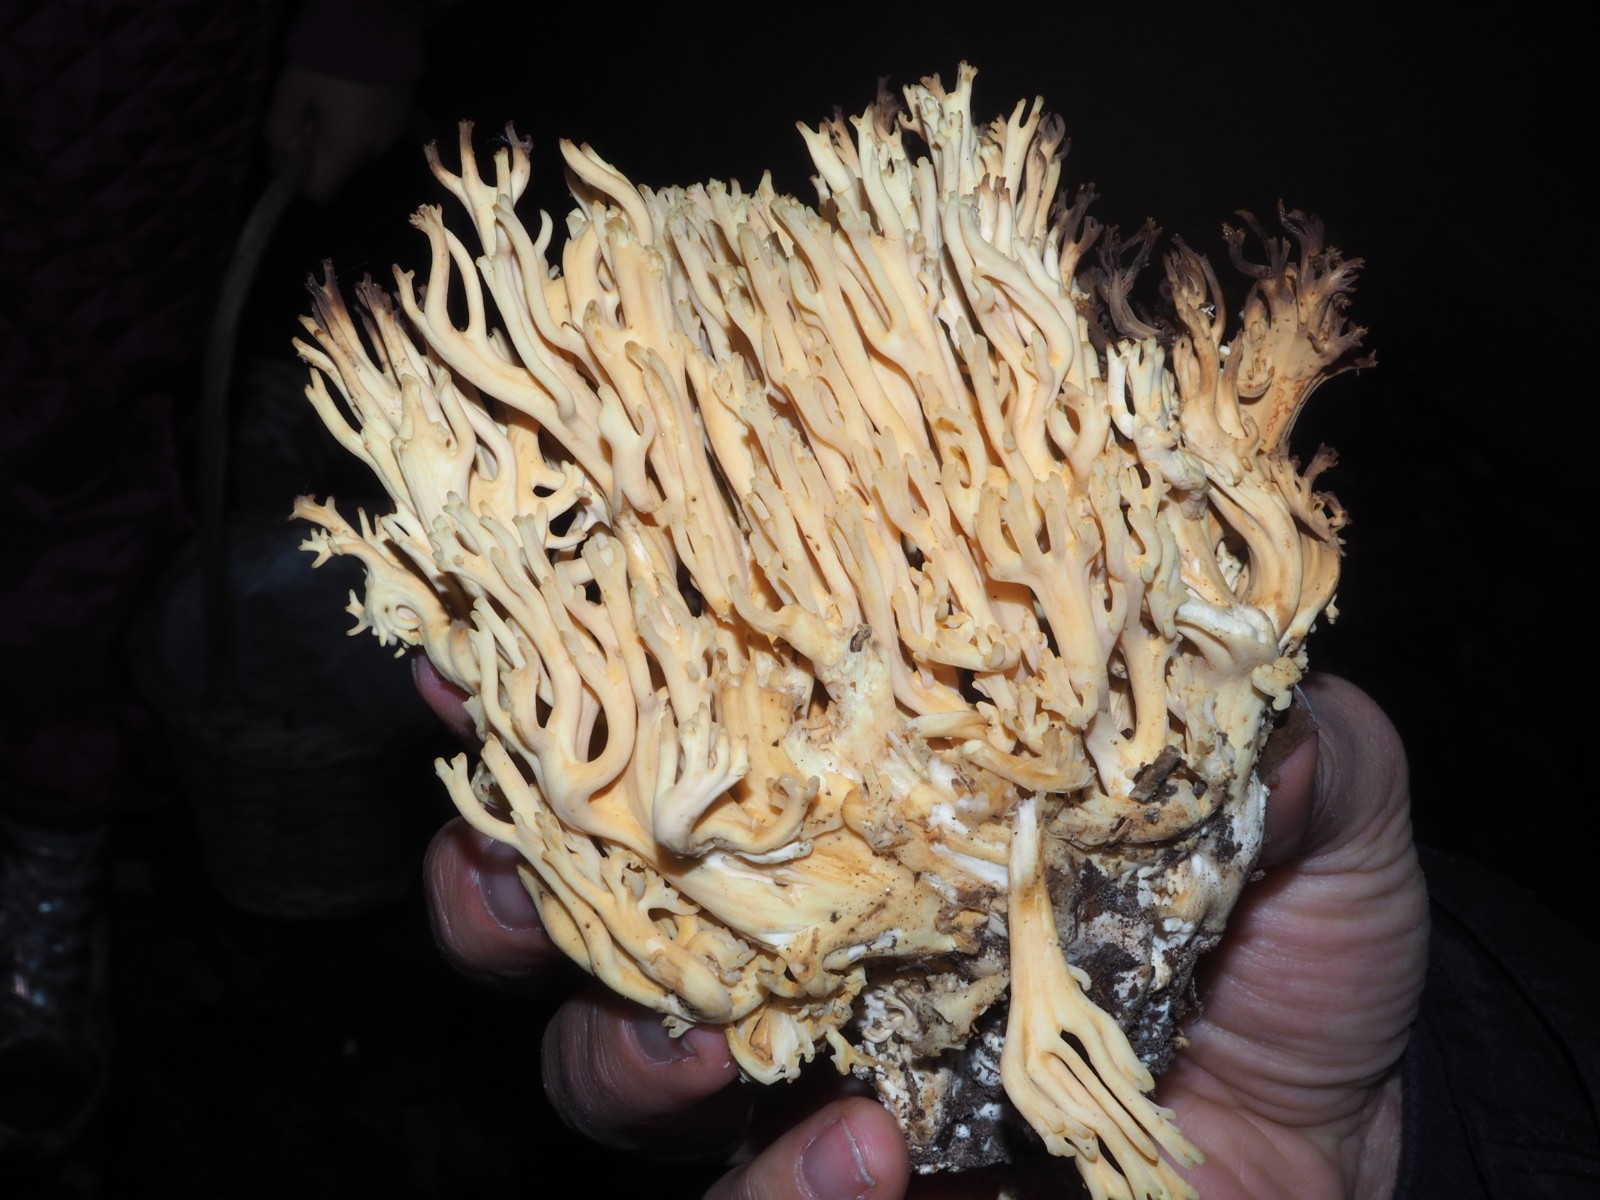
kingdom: Fungi
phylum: Basidiomycota
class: Agaricomycetes
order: Gomphales
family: Gomphaceae
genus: Ramaria
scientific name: Ramaria
